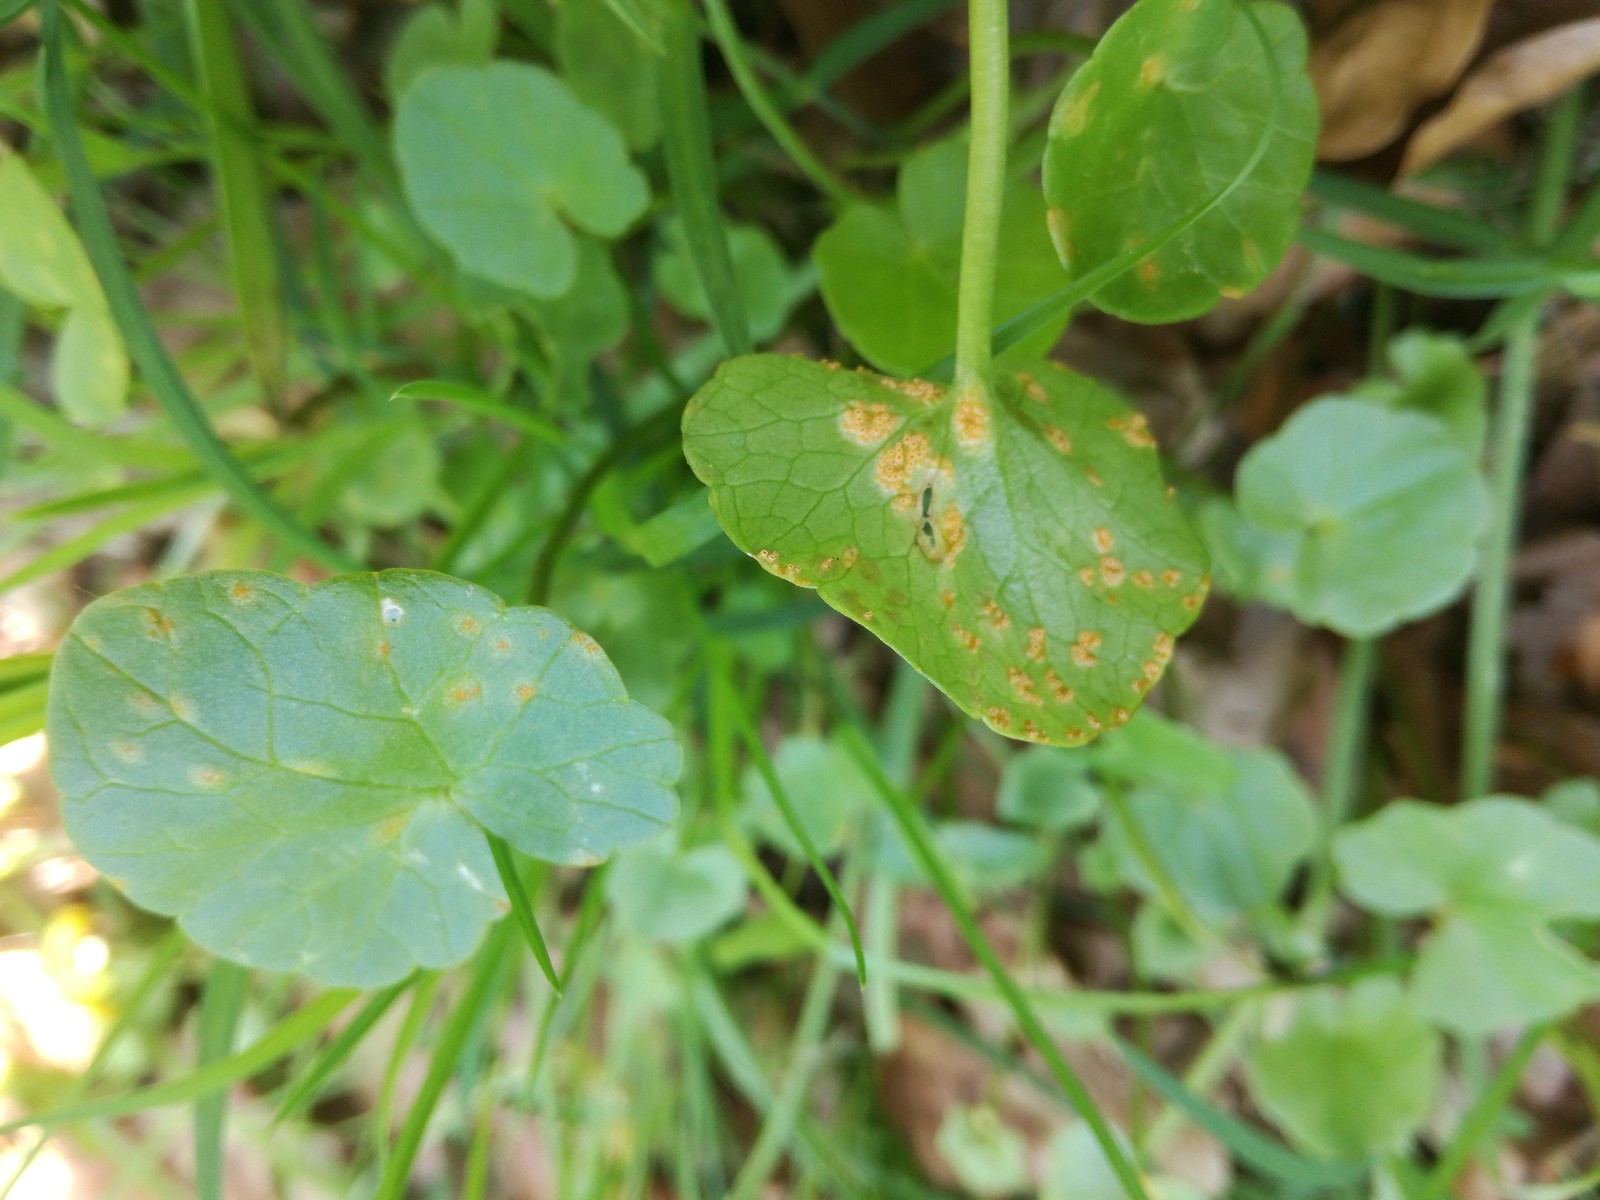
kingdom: Fungi
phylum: Basidiomycota
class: Pucciniomycetes
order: Pucciniales
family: Pucciniaceae
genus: Uromyces
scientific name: Uromyces dactylidis
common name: ranunkel-encellerust
